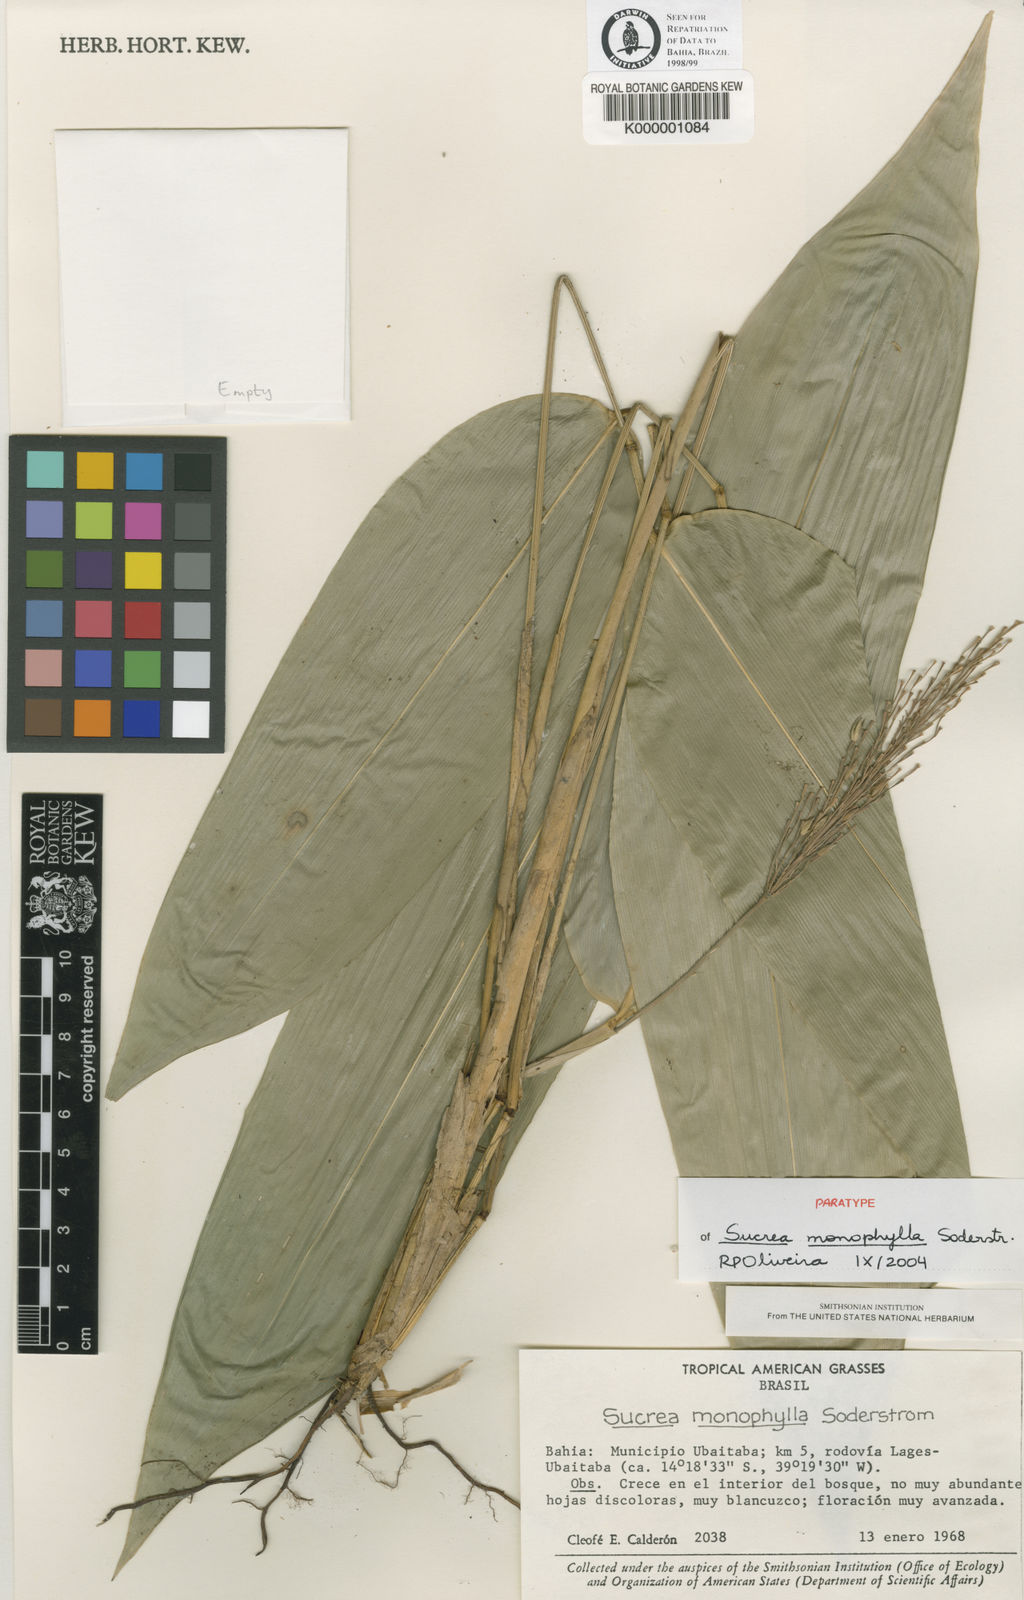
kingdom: Plantae
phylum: Tracheophyta
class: Liliopsida
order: Poales
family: Poaceae
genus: Raddia
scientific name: Raddia monophylla
